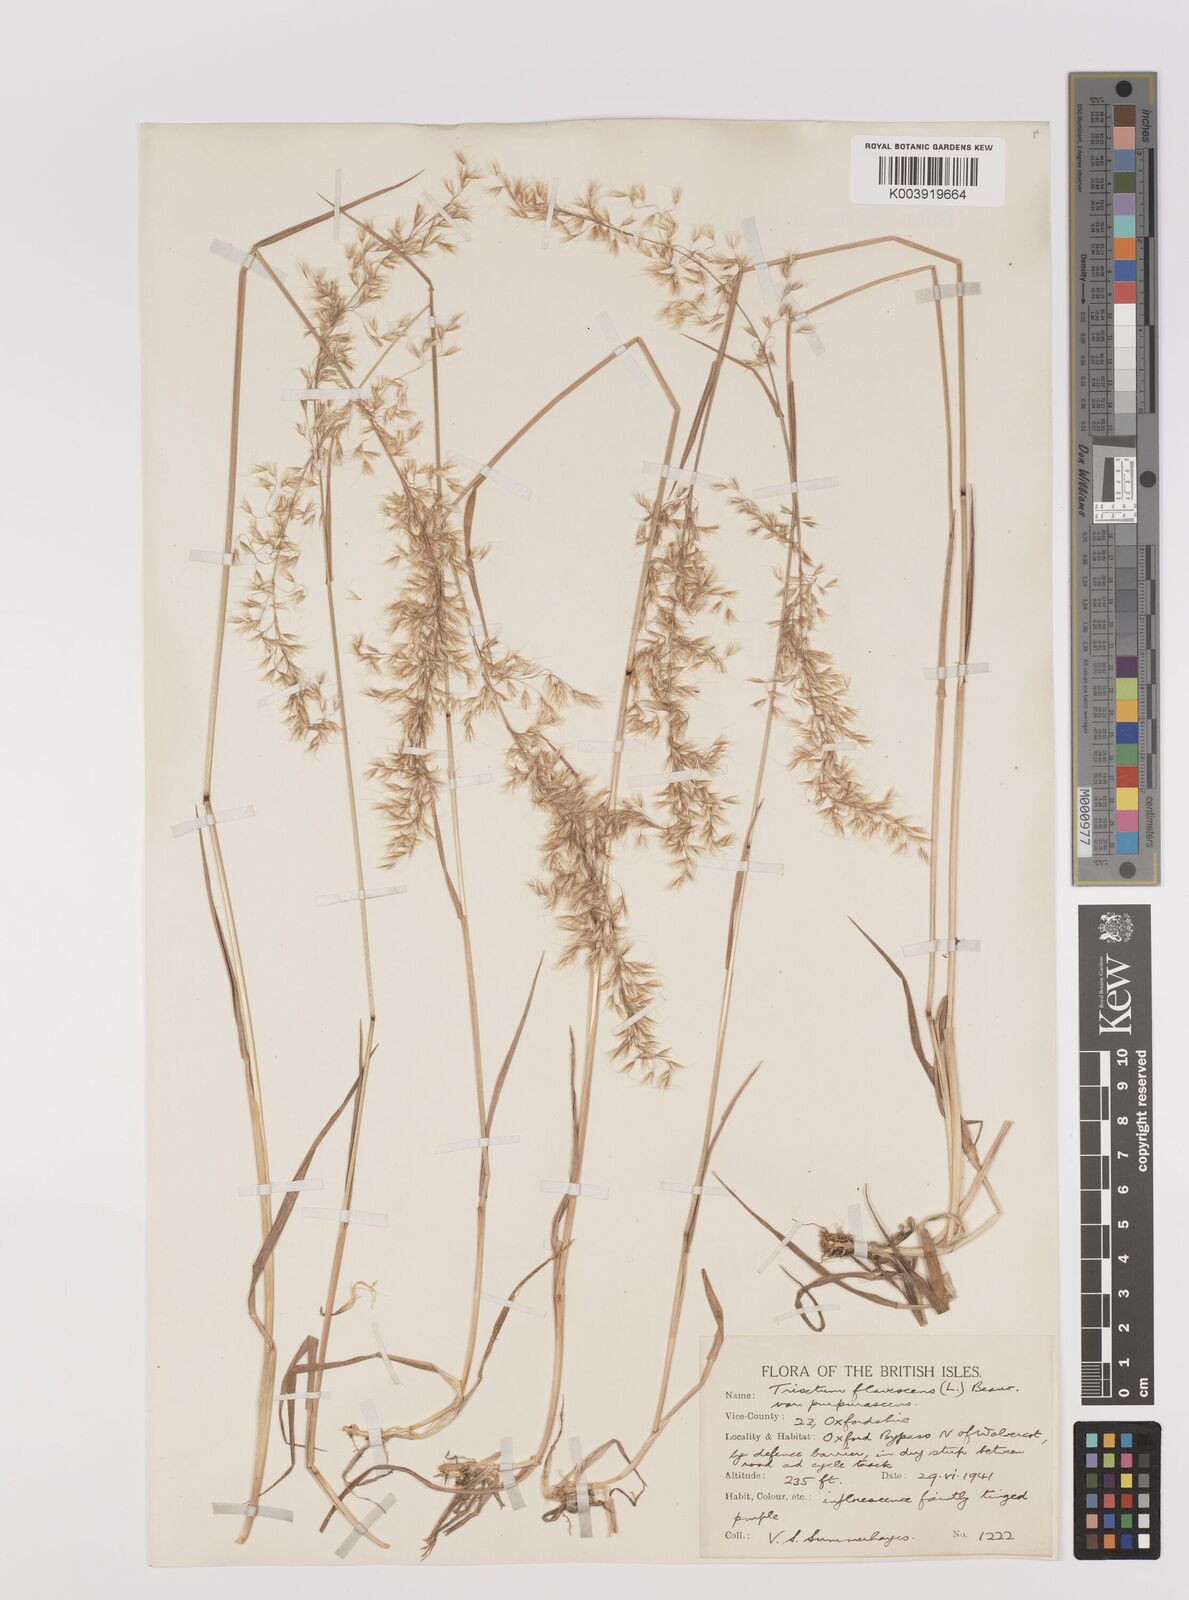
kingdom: Plantae
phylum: Tracheophyta
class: Liliopsida
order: Poales
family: Poaceae
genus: Trisetum
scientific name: Trisetum flavescens
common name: Yellow oat-grass
